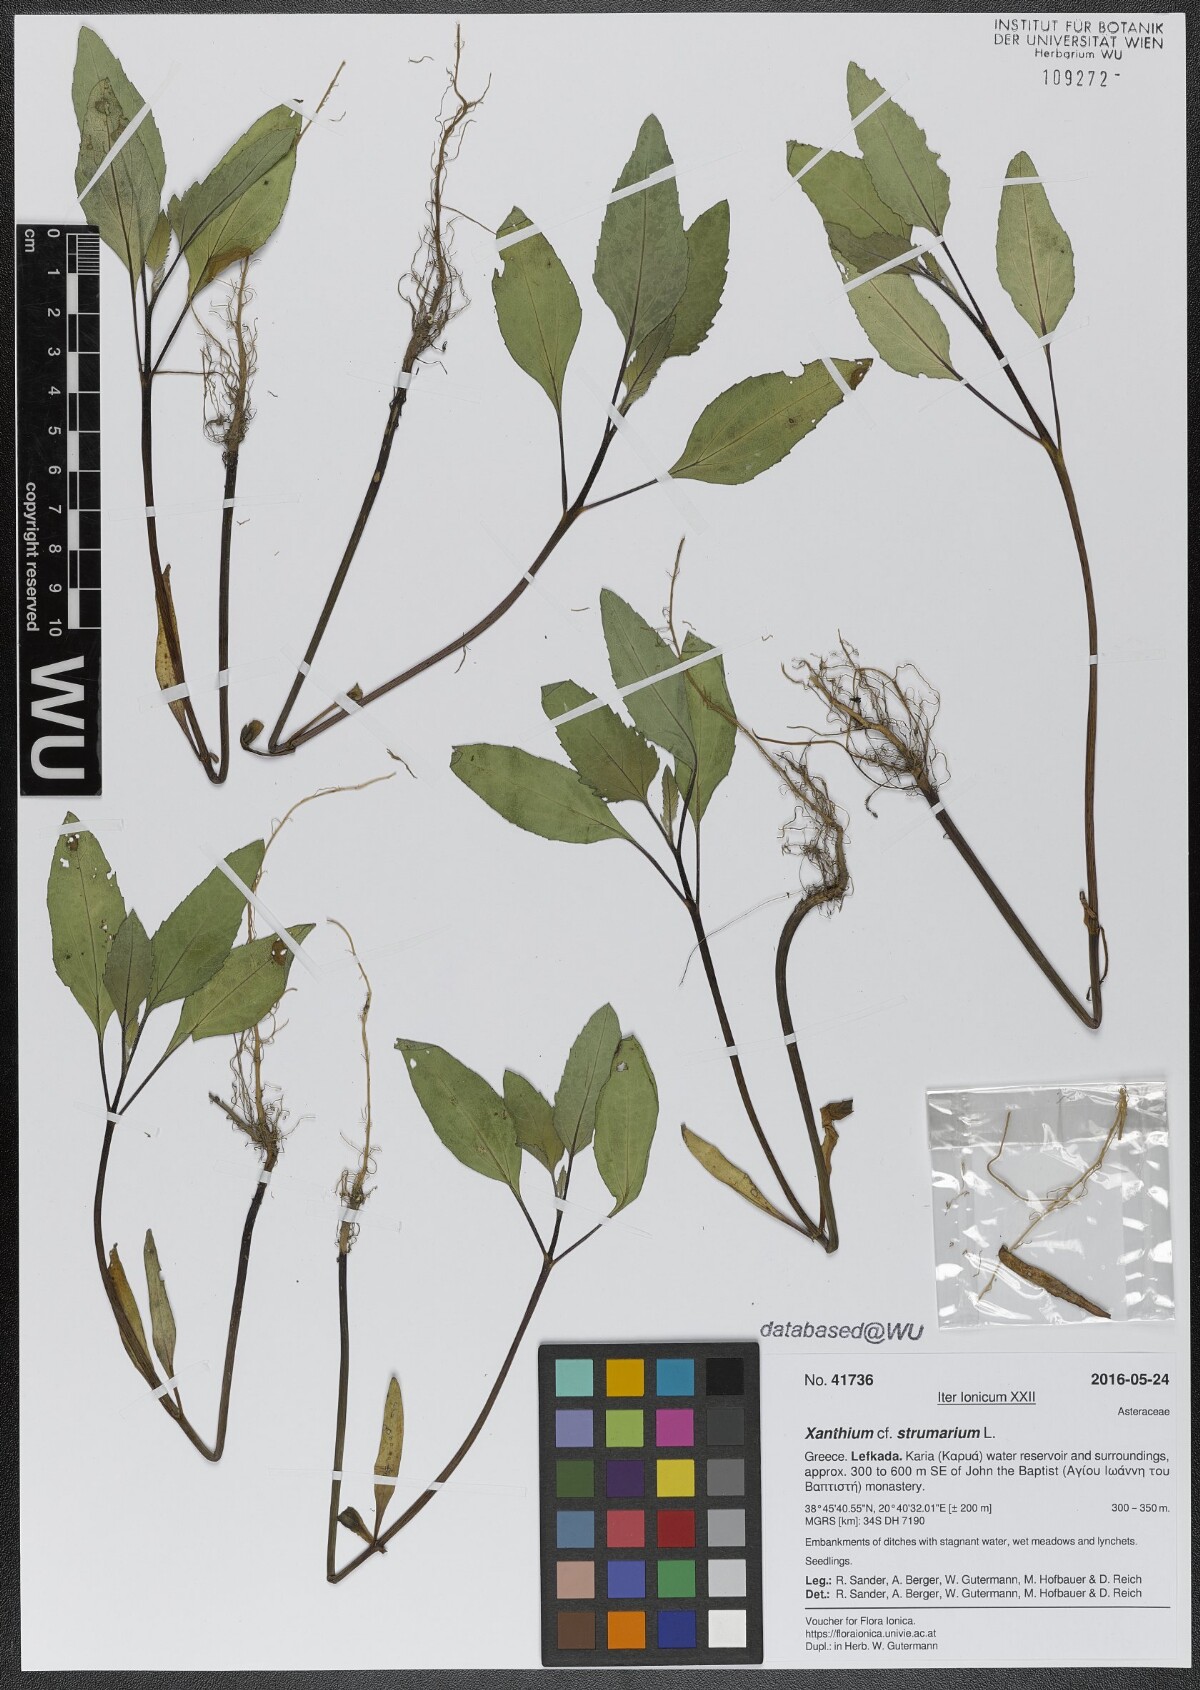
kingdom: Plantae
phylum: Tracheophyta
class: Magnoliopsida
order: Asterales
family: Asteraceae
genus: Xanthium
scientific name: Xanthium strumarium
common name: Rough cocklebur
